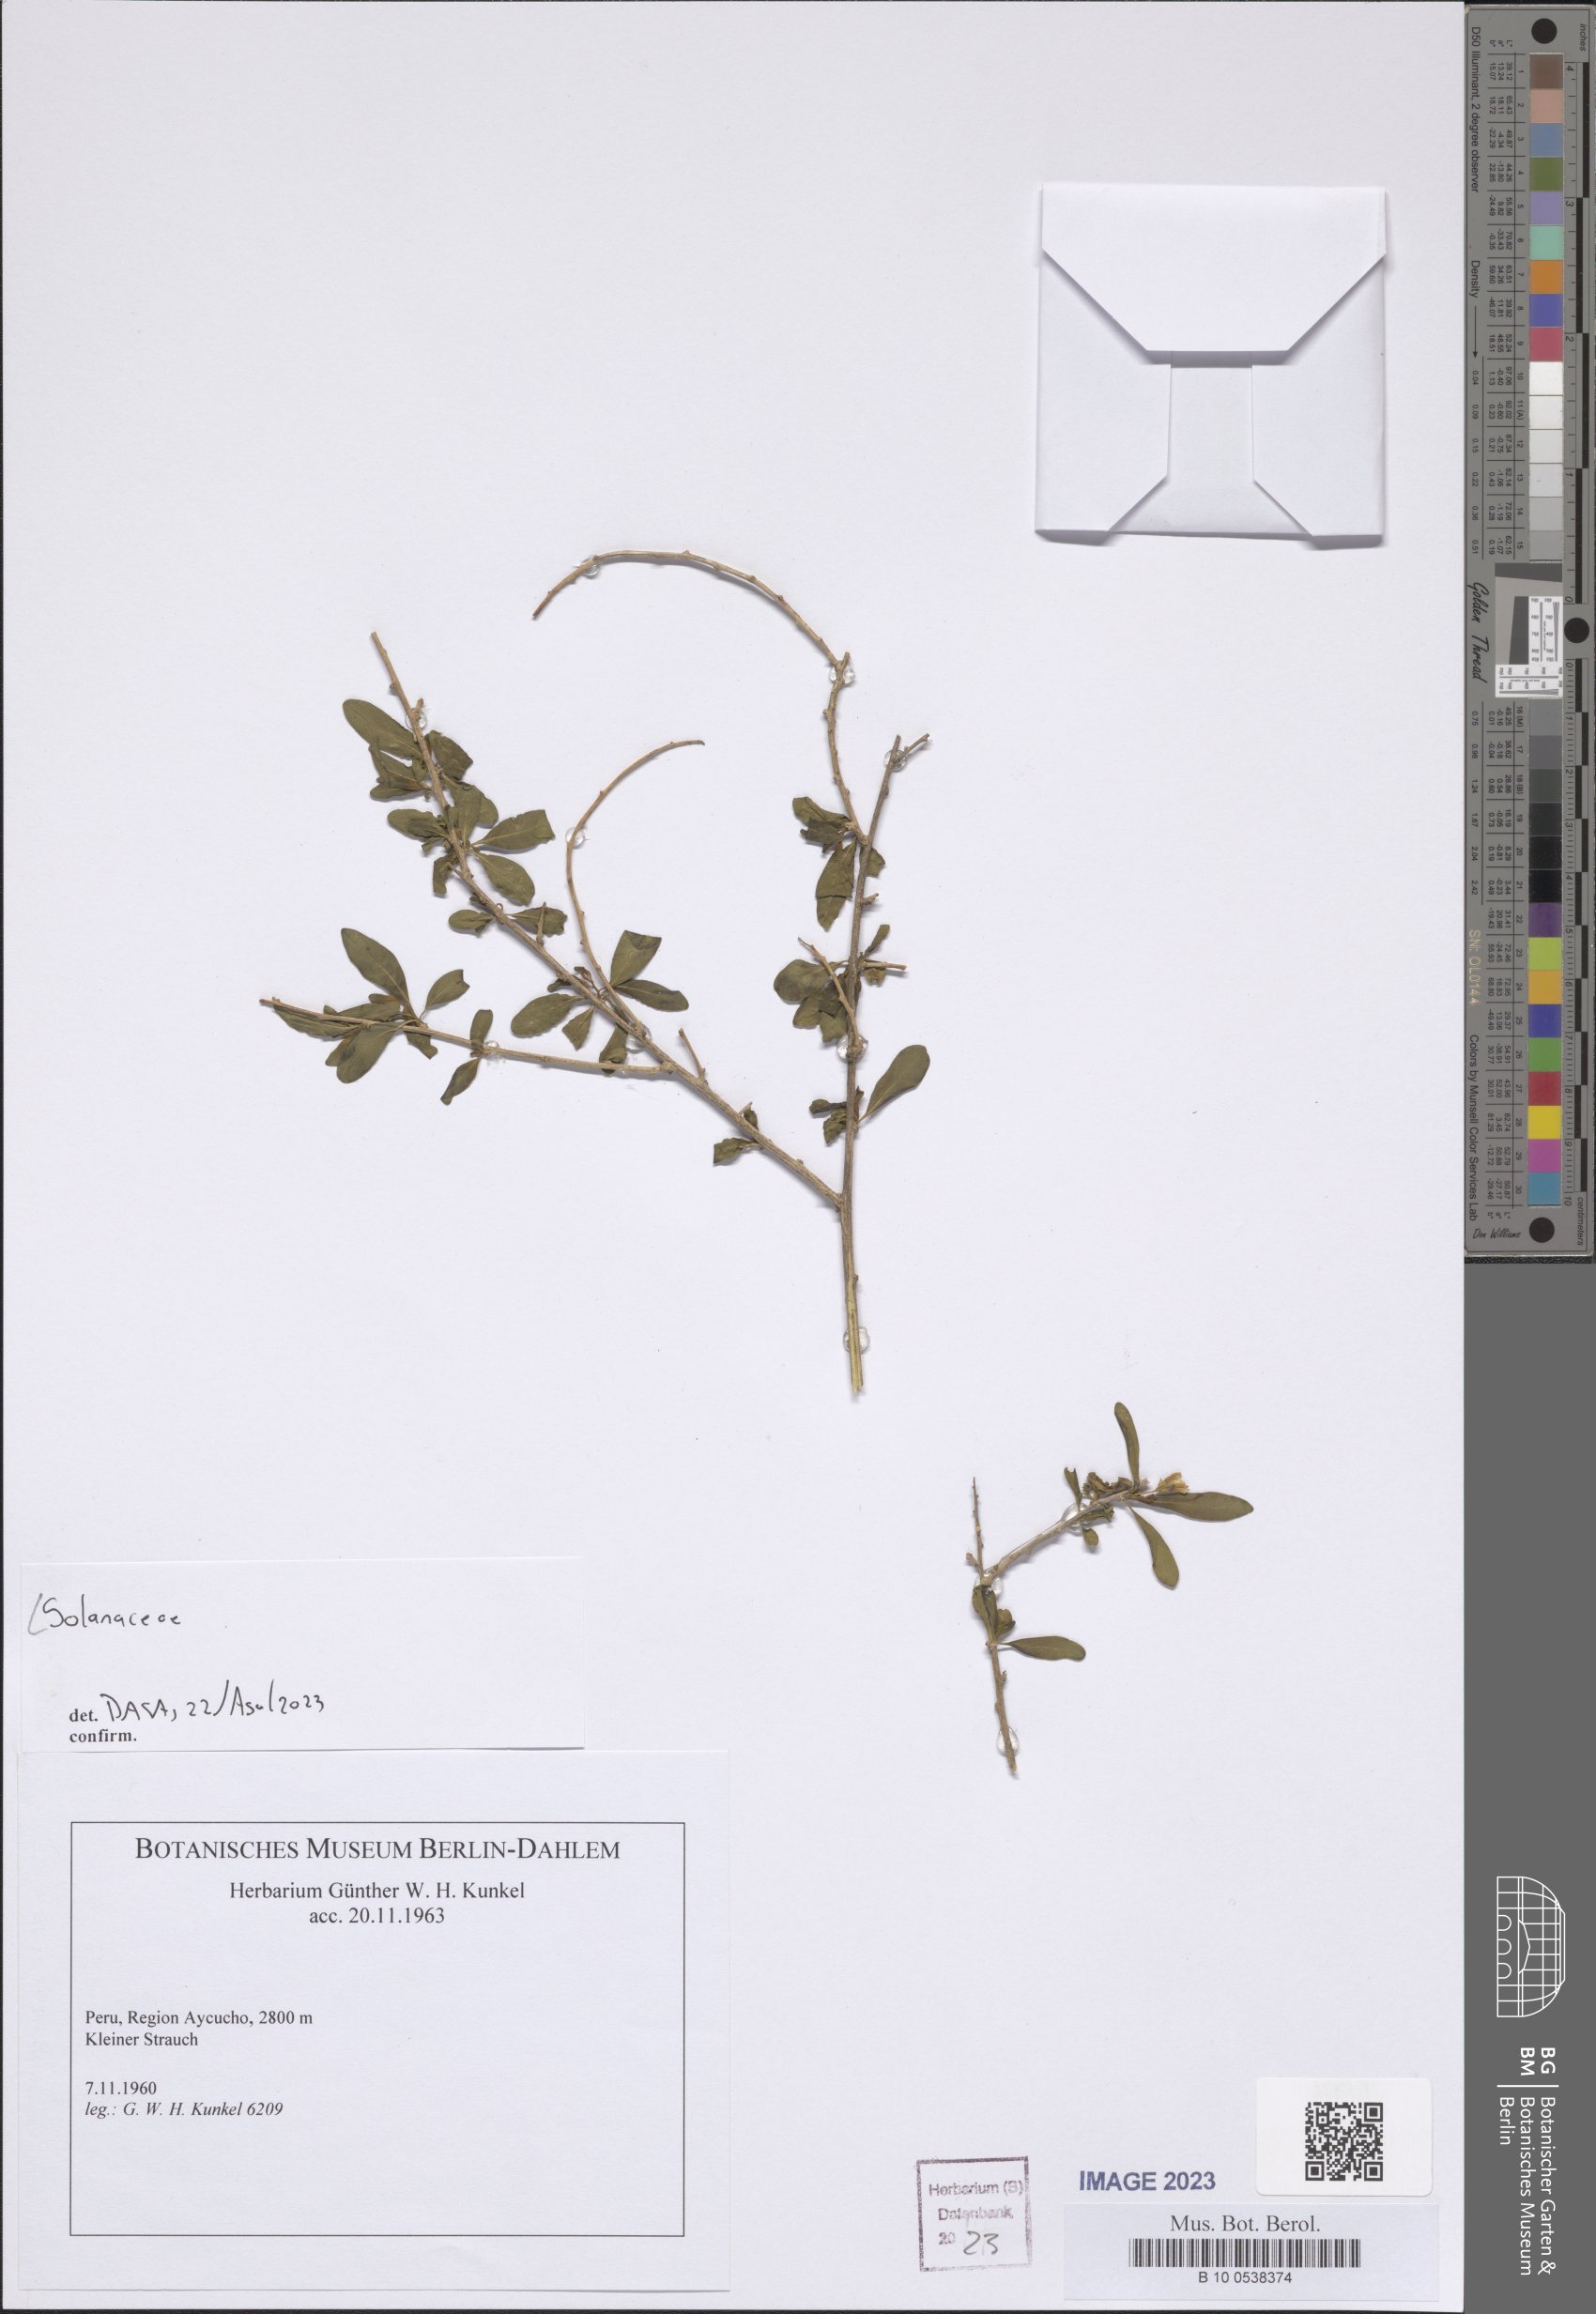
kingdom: Plantae
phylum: Tracheophyta
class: Magnoliopsida
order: Solanales
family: Solanaceae
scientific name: Solanaceae
